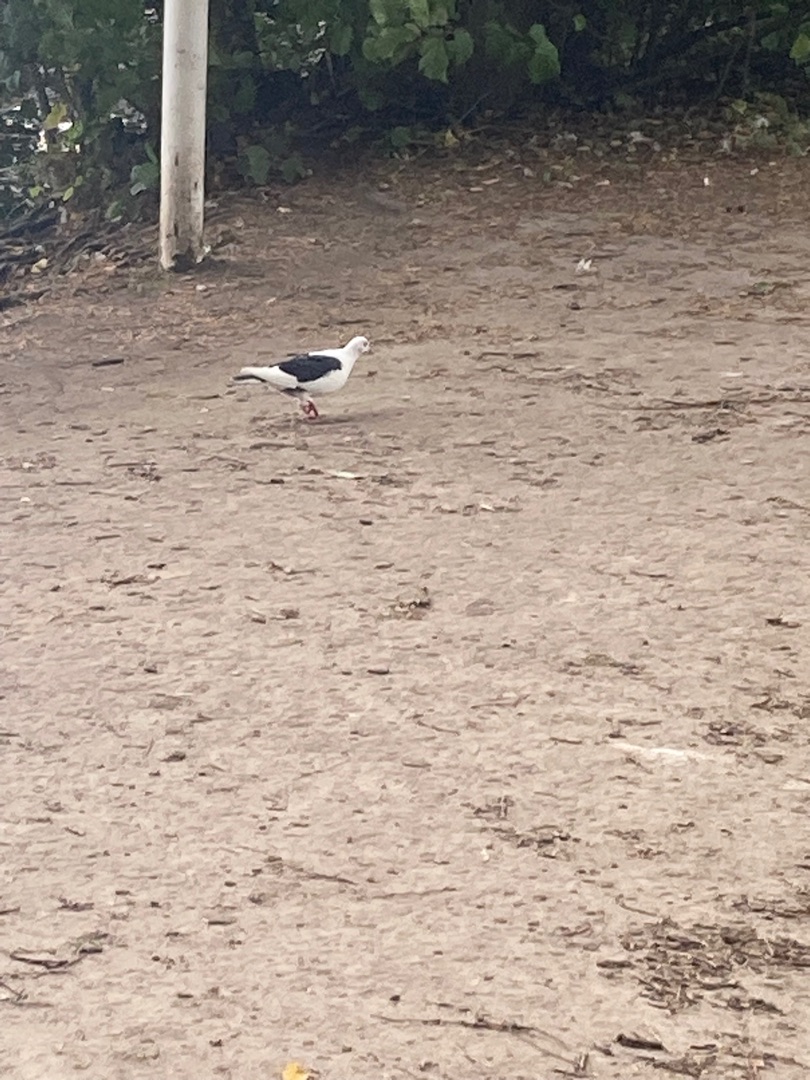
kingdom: Animalia
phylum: Chordata
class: Aves
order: Columbiformes
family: Columbidae
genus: Columba
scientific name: Columba livia
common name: Tamdue
